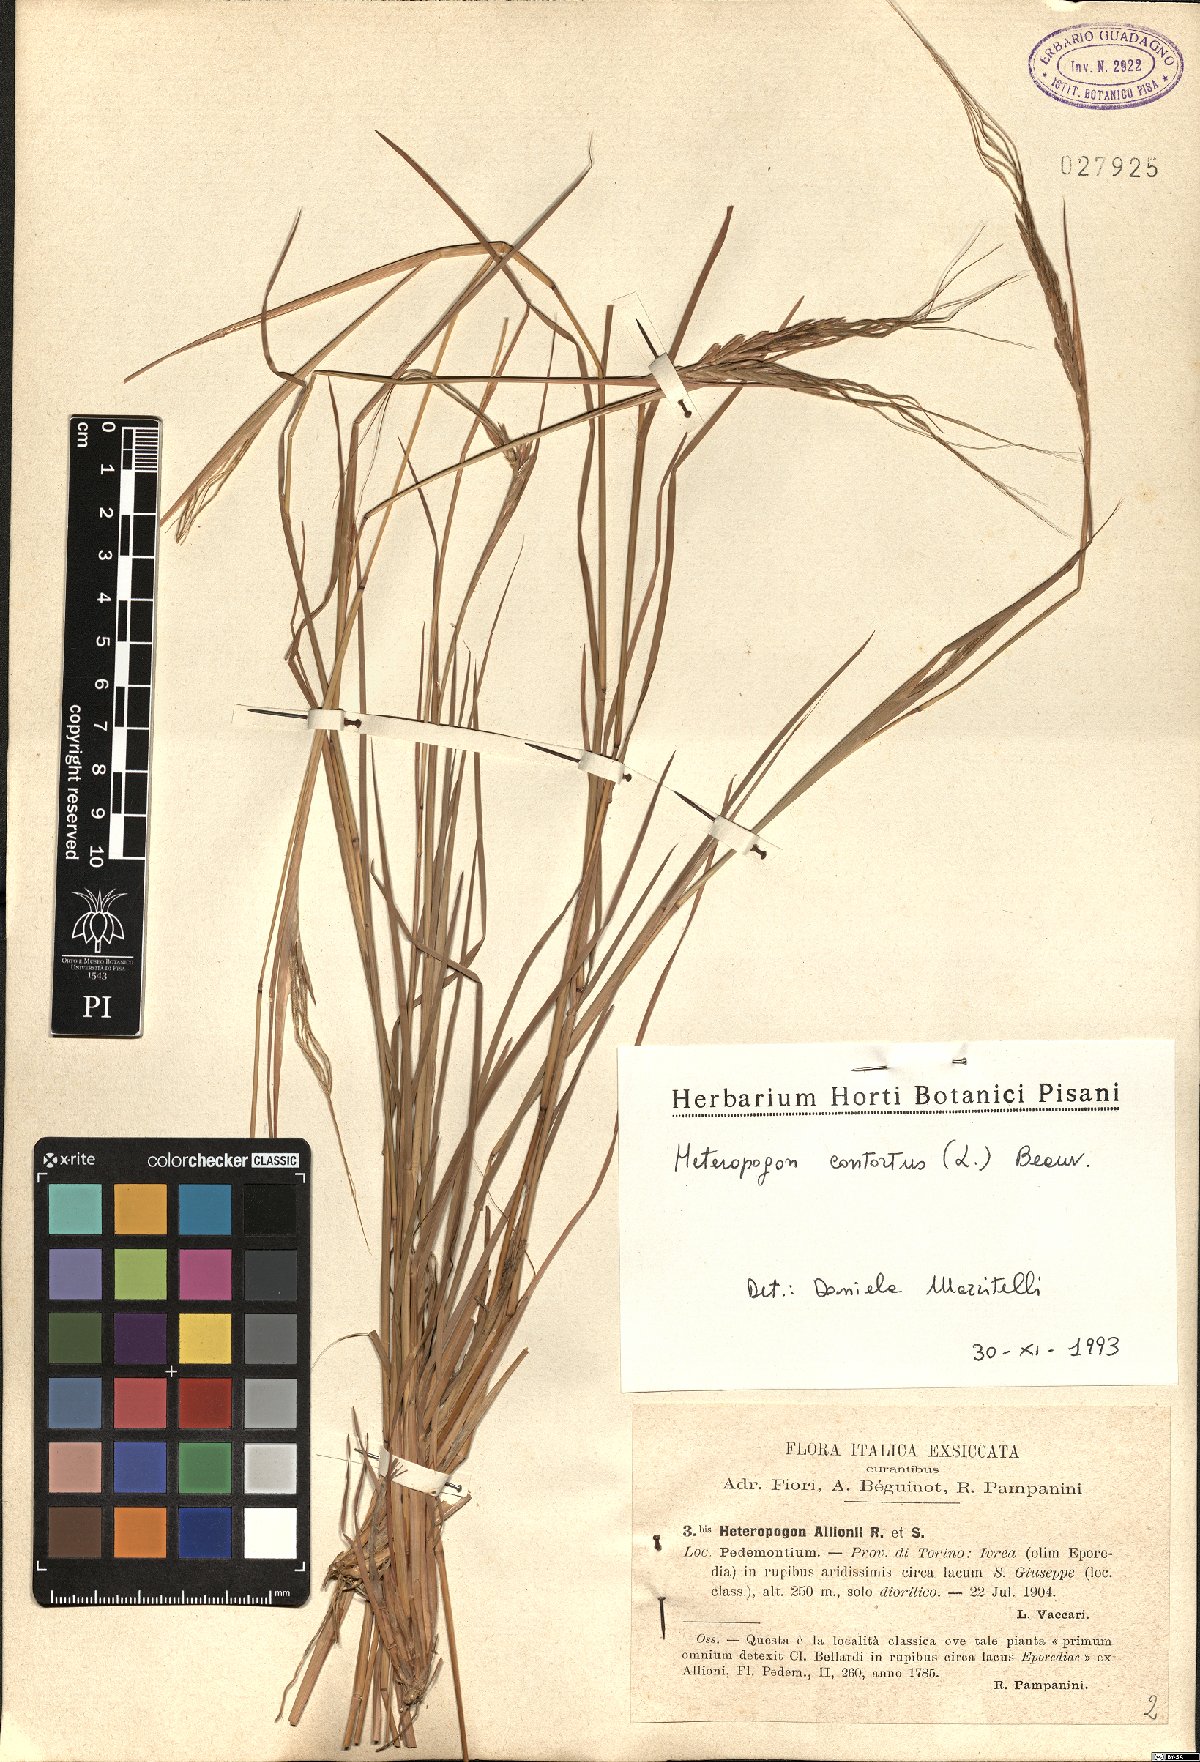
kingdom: Plantae
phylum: Tracheophyta
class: Liliopsida
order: Poales
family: Poaceae
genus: Heteropogon
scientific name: Heteropogon contortus
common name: Tanglehead
